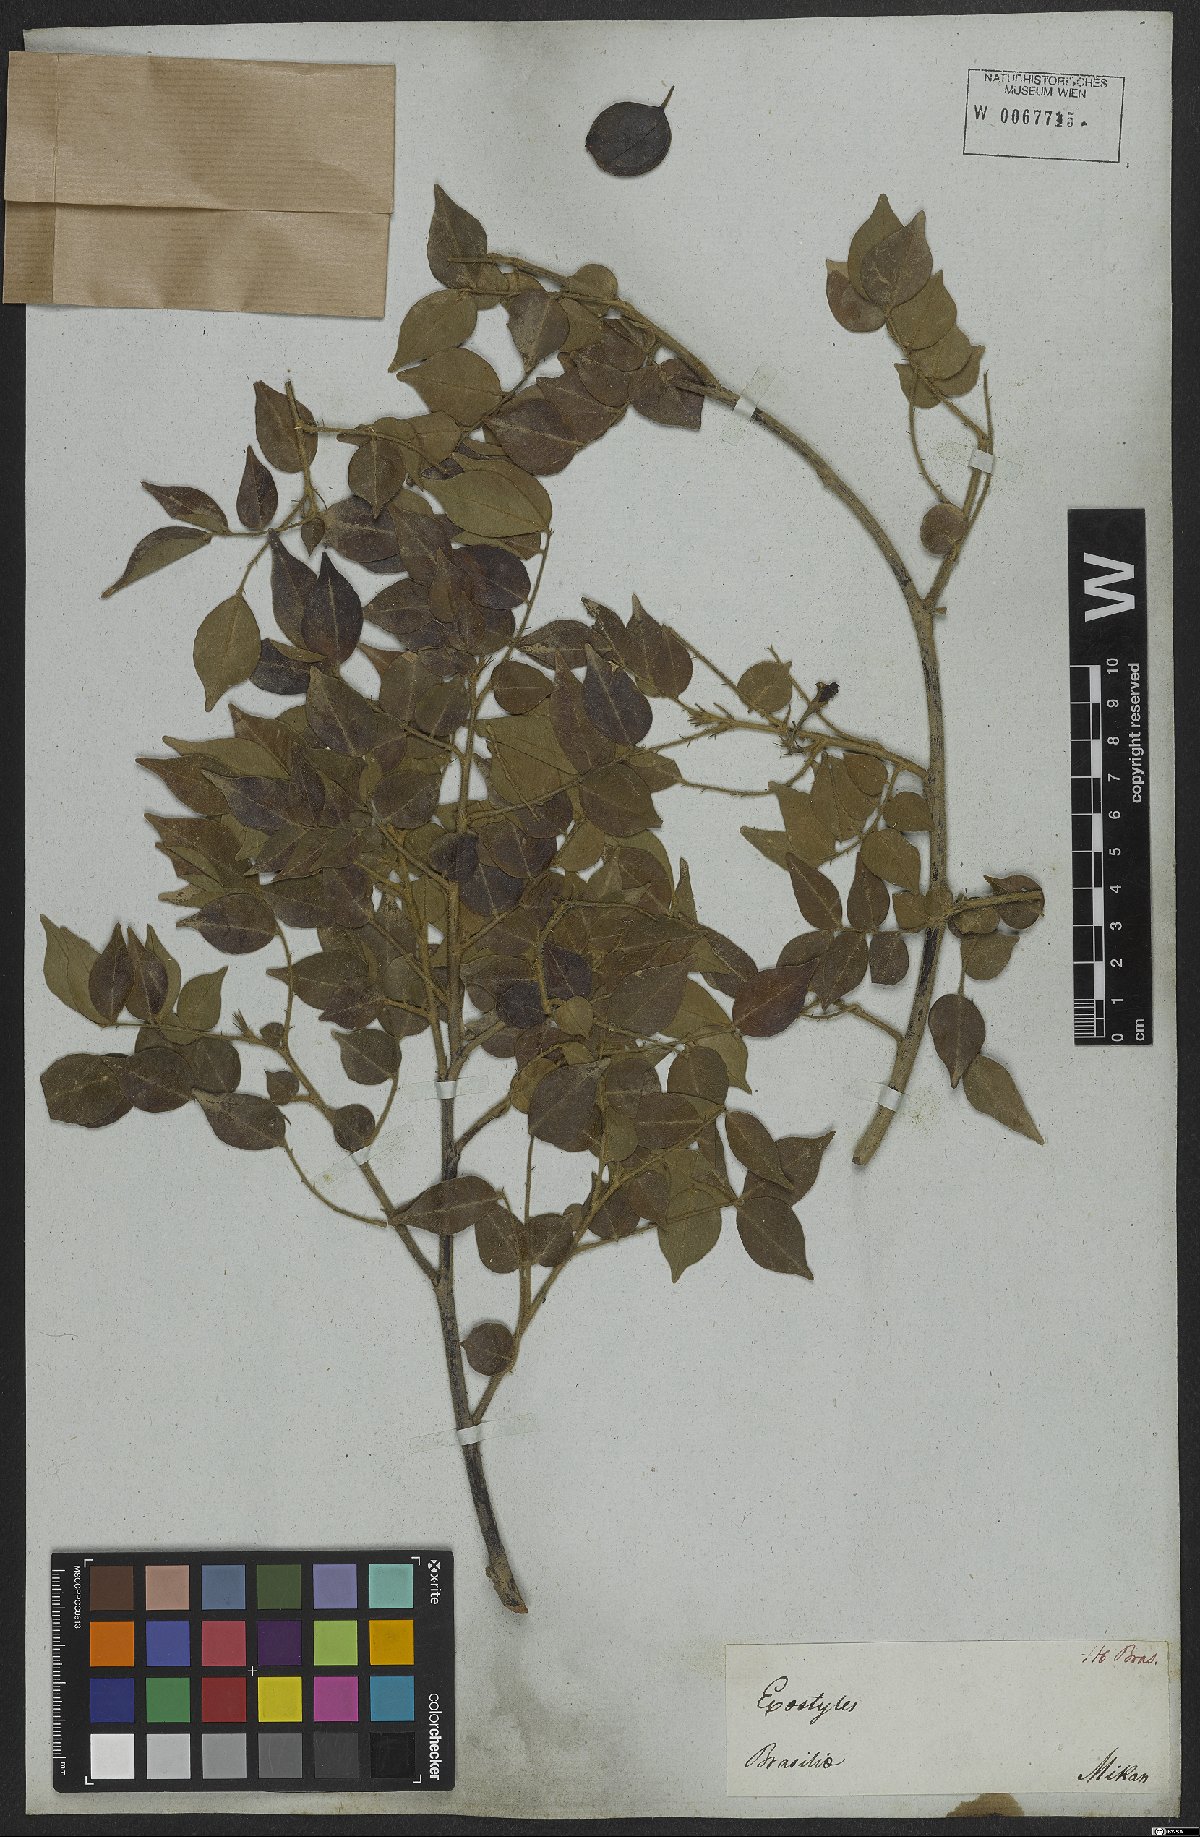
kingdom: Plantae
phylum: Tracheophyta
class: Magnoliopsida
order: Fabales
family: Fabaceae
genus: Exostyles
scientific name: Exostyles venusta
